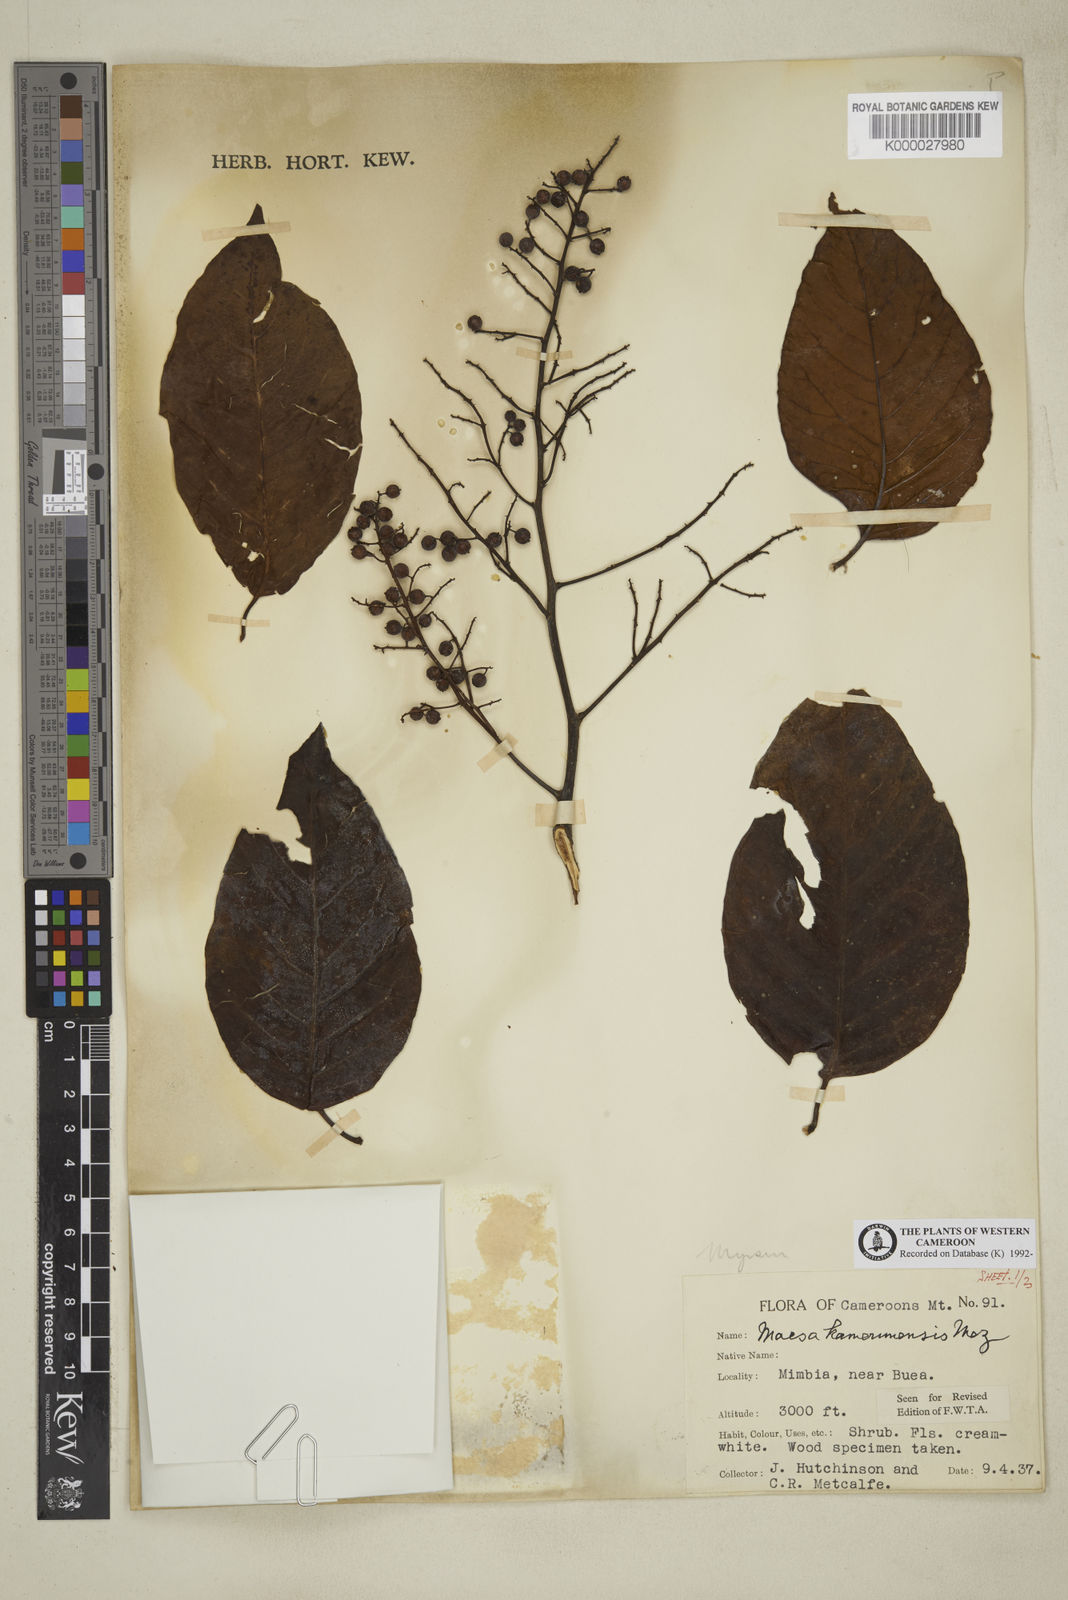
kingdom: Plantae
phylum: Tracheophyta
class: Magnoliopsida
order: Ericales
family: Primulaceae
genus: Maesa
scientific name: Maesa kamerunensis
